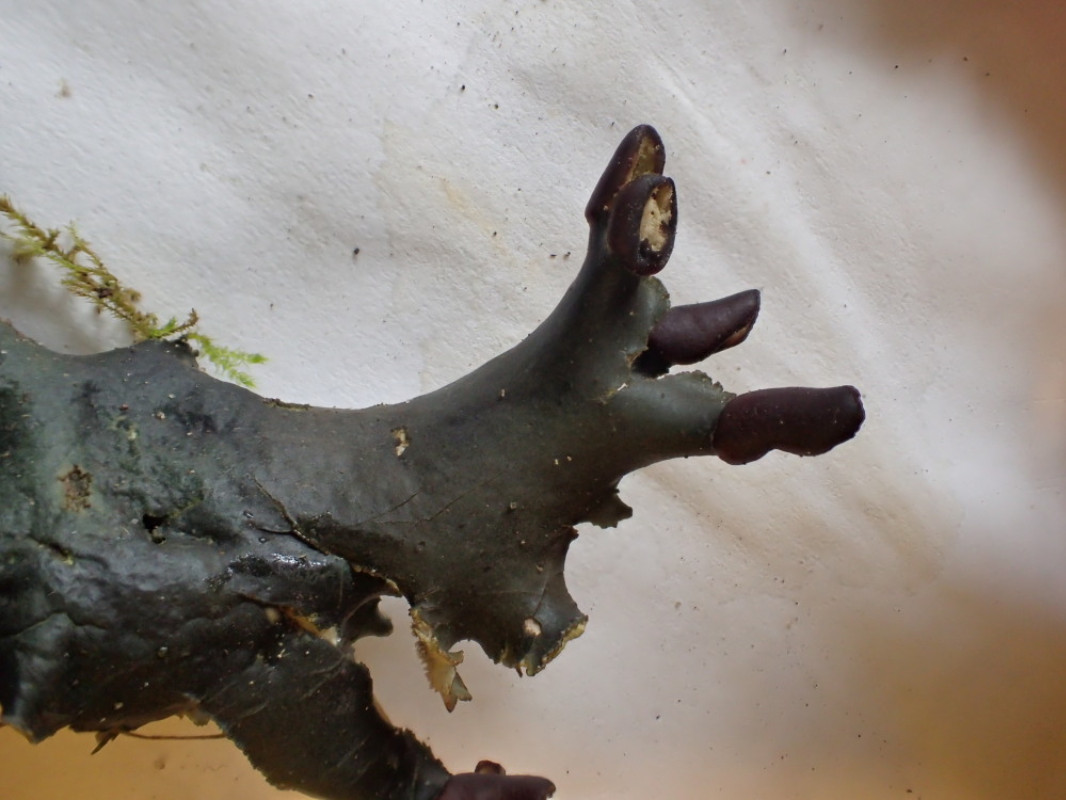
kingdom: Fungi
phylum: Ascomycota
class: Lecanoromycetes
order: Peltigerales
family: Peltigeraceae
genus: Peltigera
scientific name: Peltigera neckeri
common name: glinsende skjoldlav
